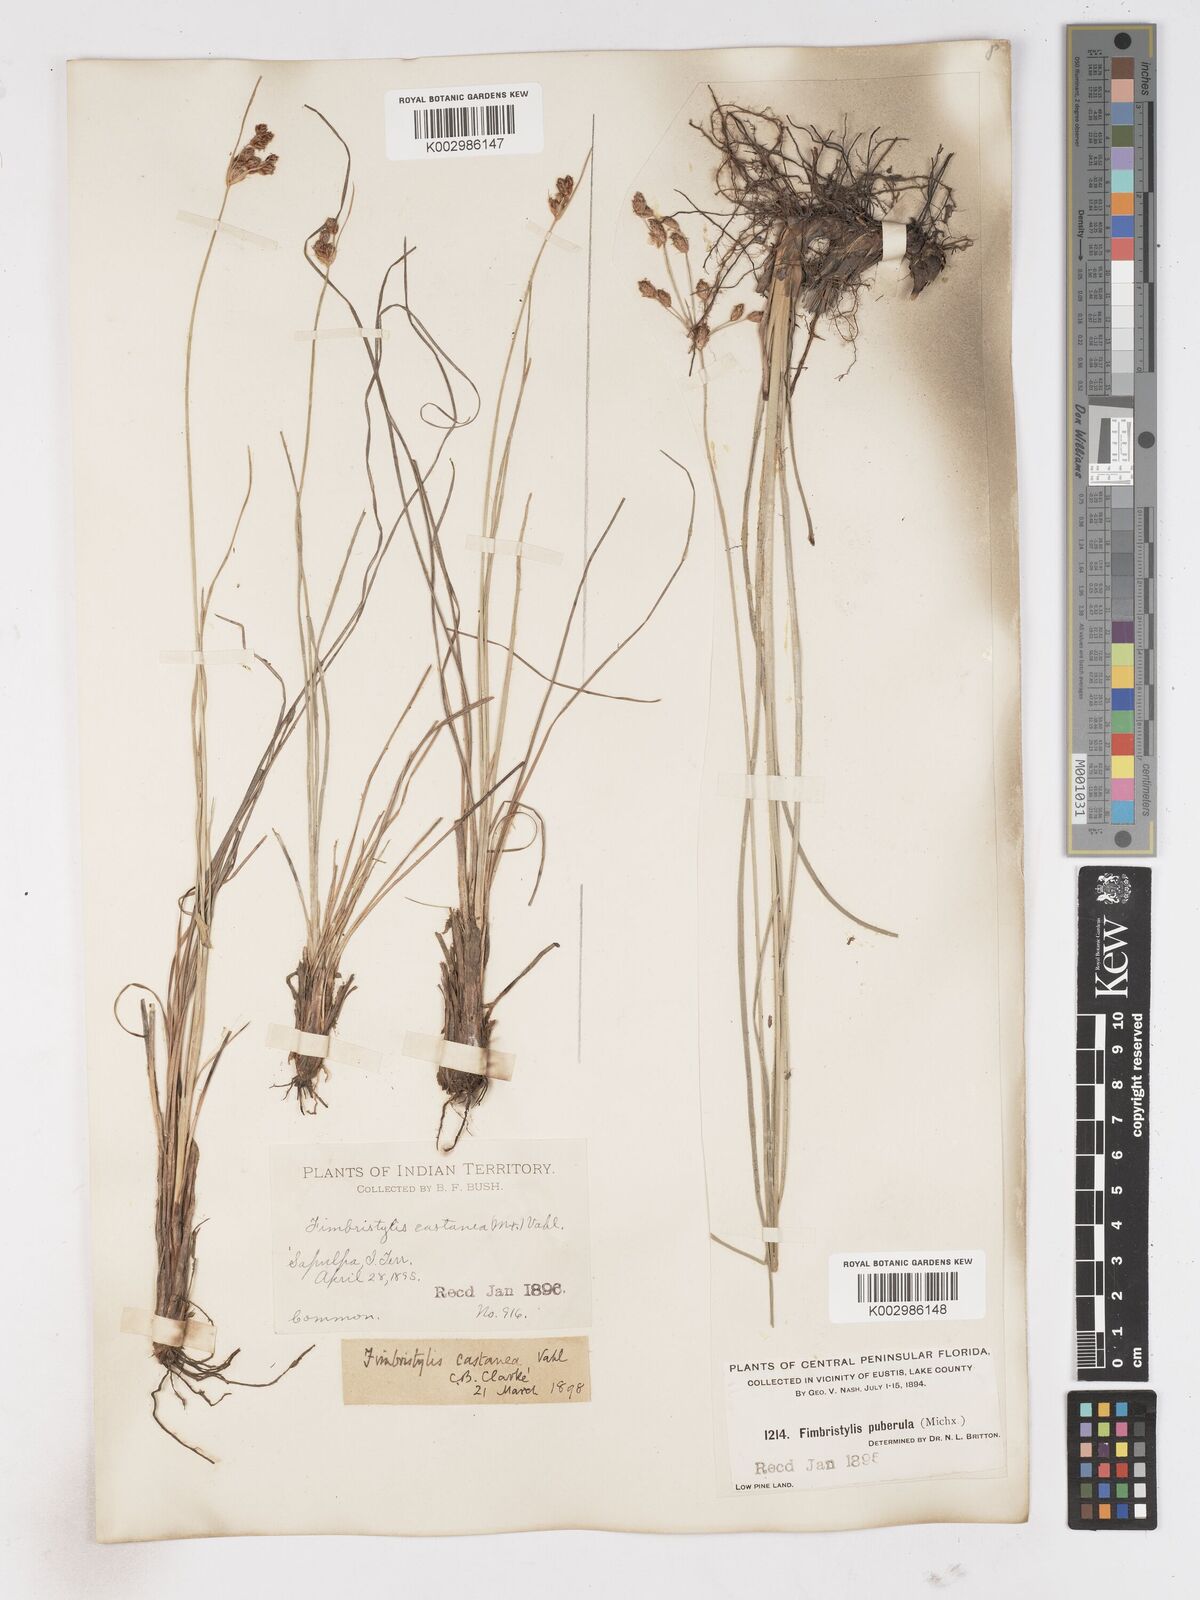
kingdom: Plantae
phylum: Tracheophyta
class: Liliopsida
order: Poales
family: Cyperaceae
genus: Fimbristylis
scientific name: Fimbristylis spadicea
